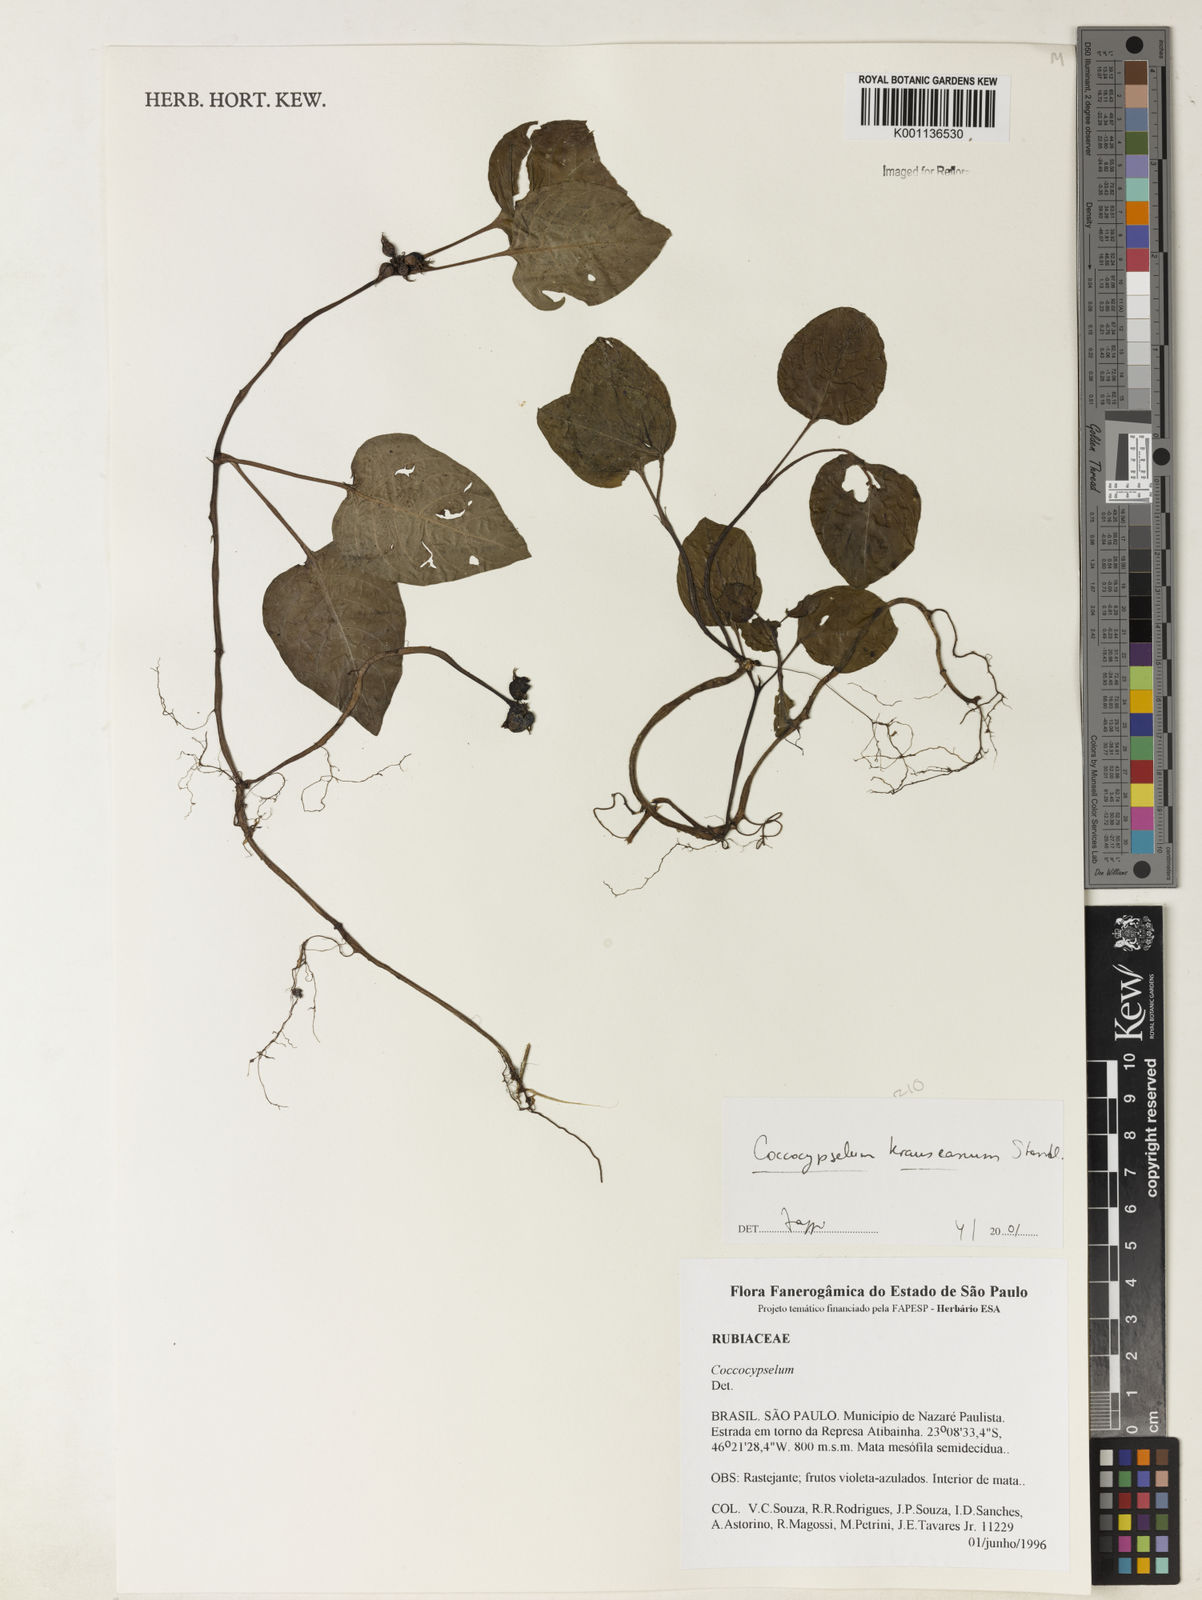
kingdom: Plantae
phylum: Tracheophyta
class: Magnoliopsida
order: Gentianales
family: Rubiaceae
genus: Coccocypselum
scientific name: Coccocypselum geophiloides
